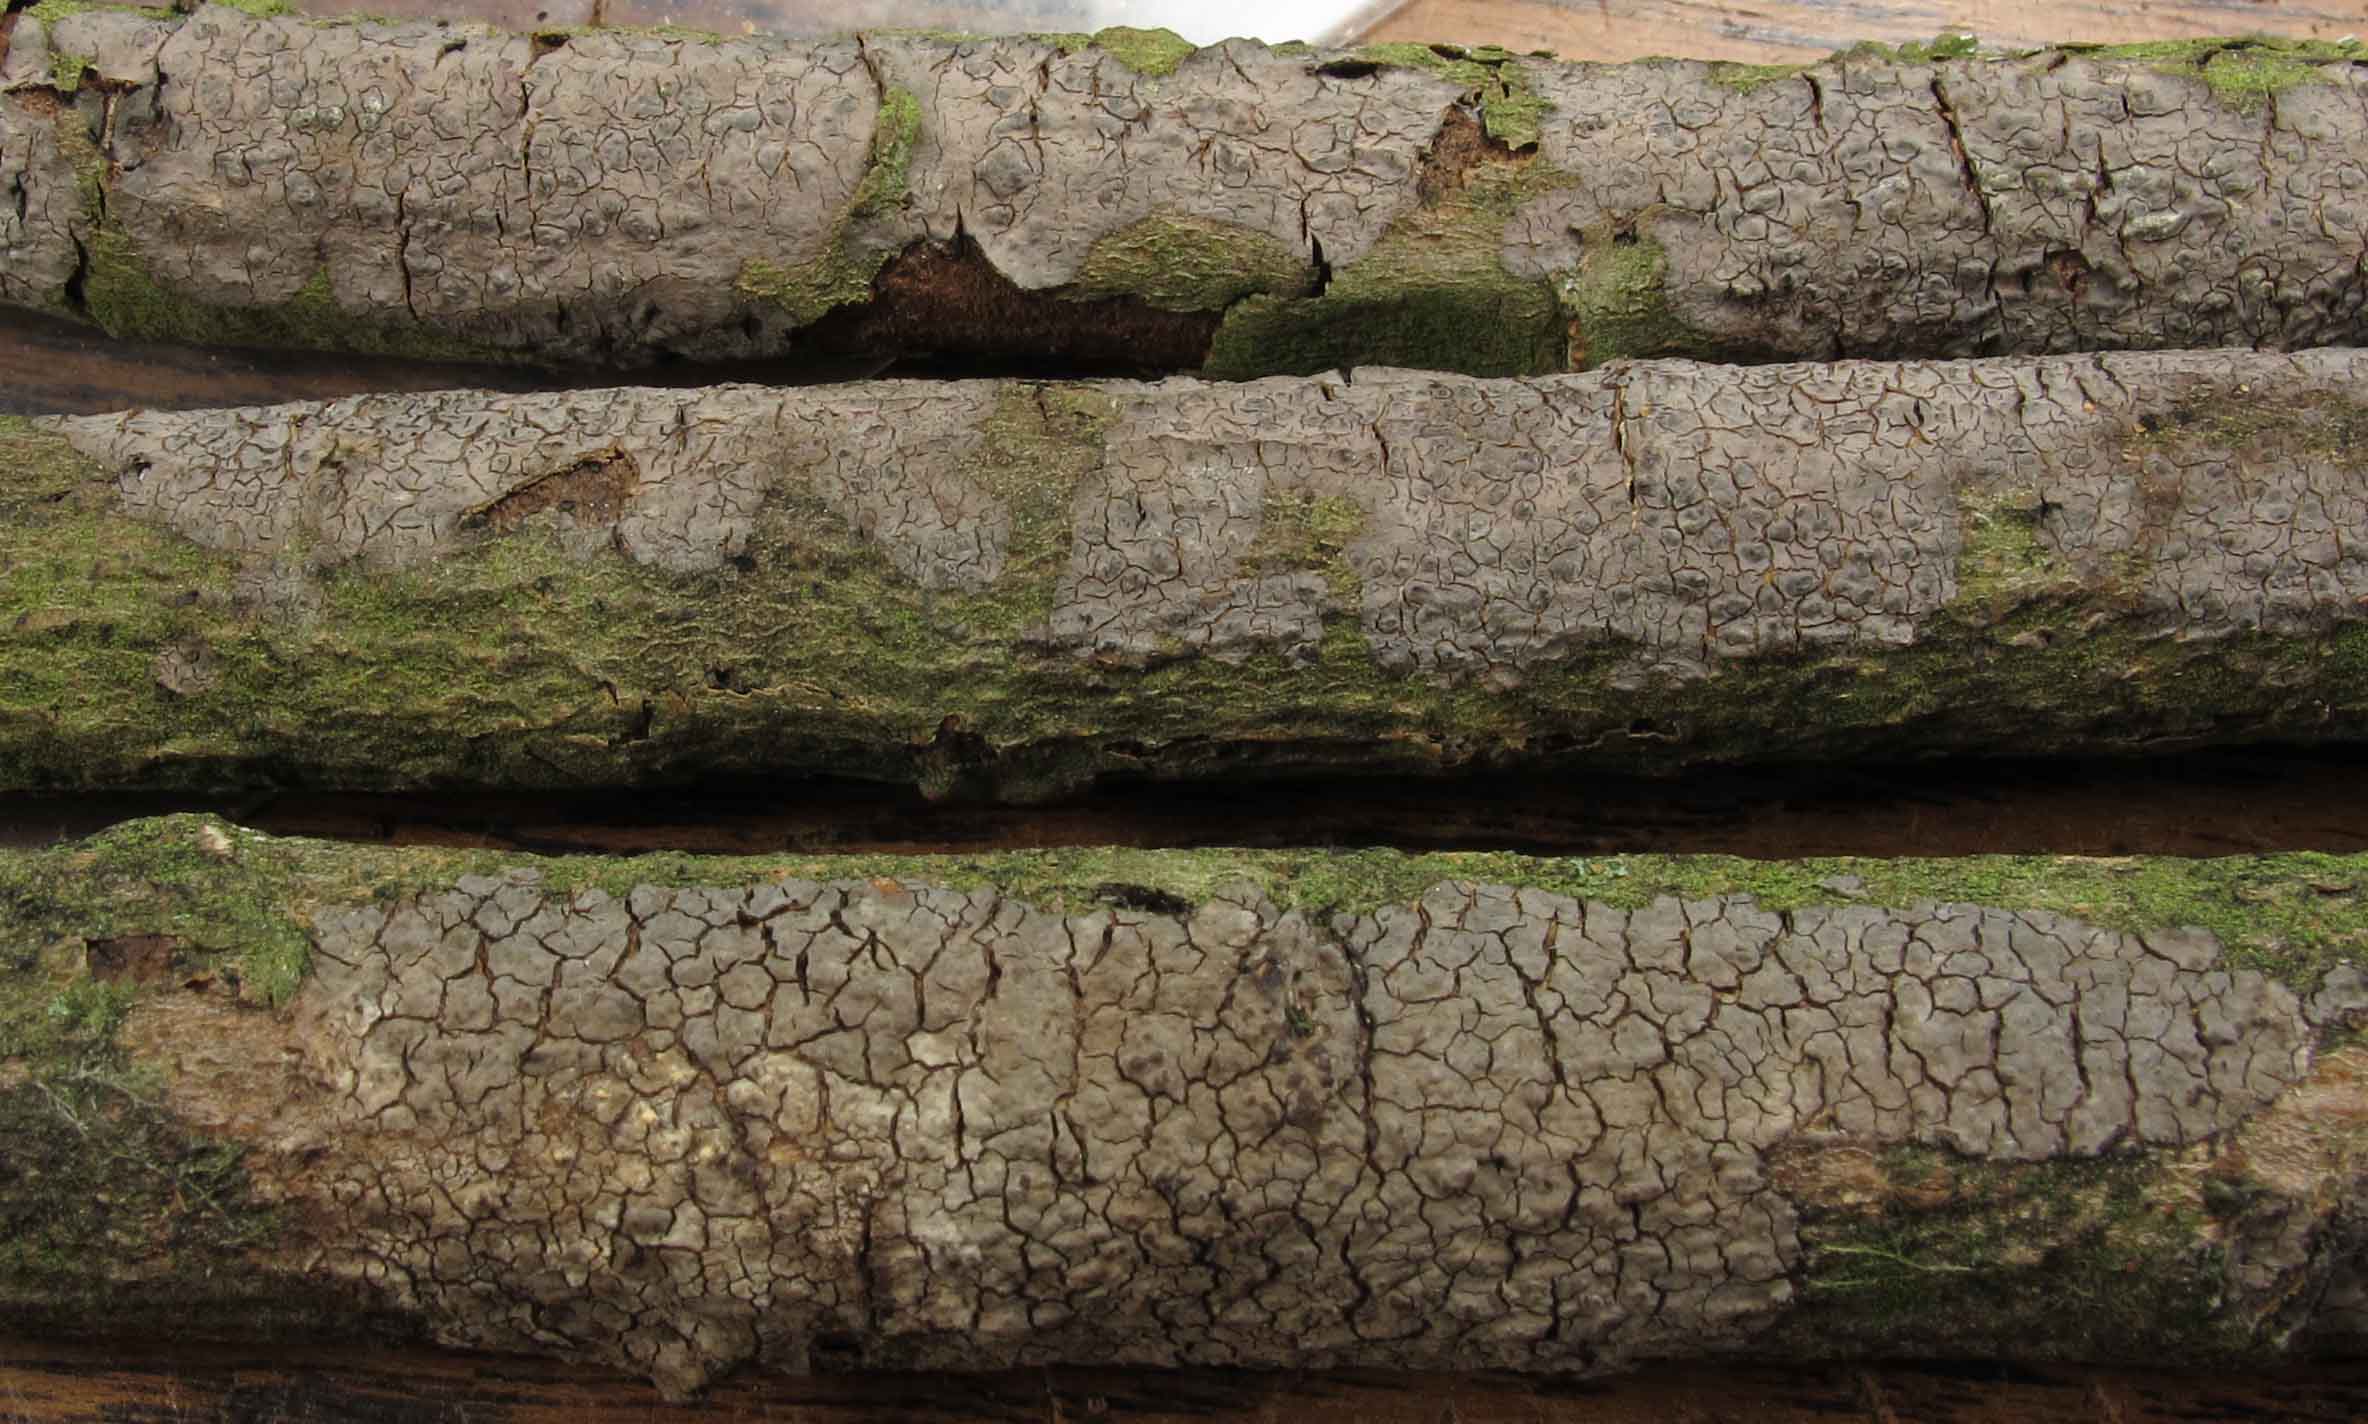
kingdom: Fungi
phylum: Basidiomycota
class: Agaricomycetes
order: Russulales
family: Peniophoraceae
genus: Peniophora
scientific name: Peniophora violaceolivida
